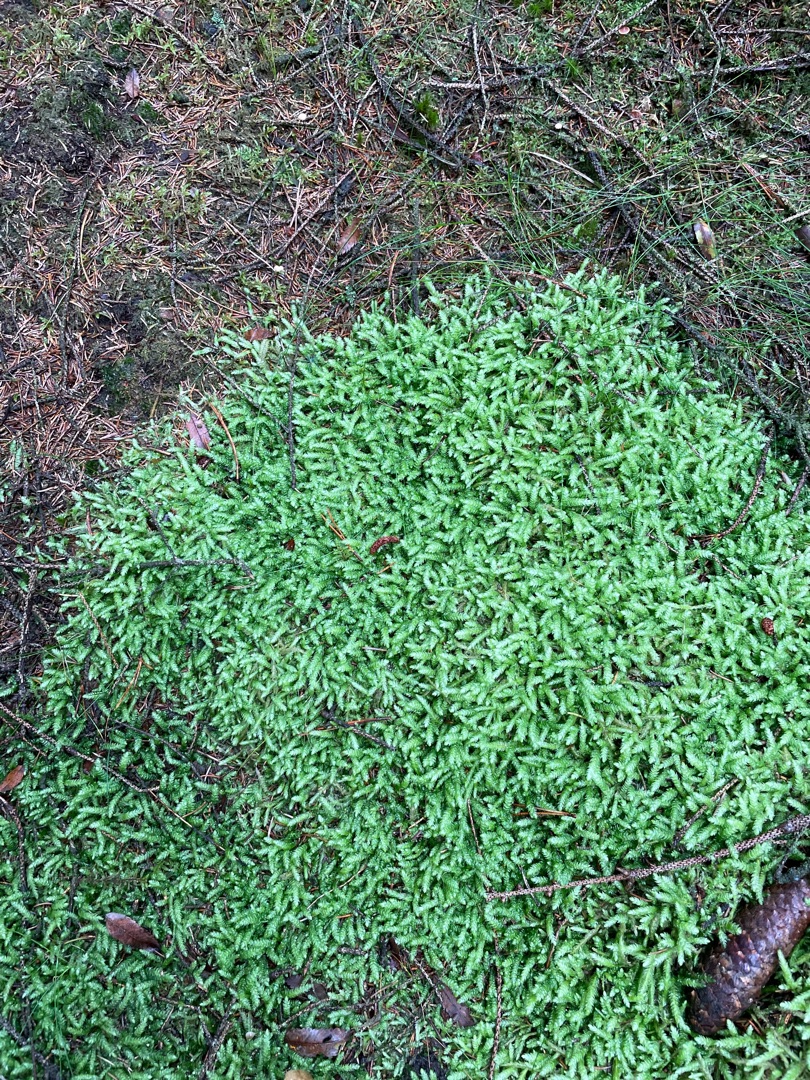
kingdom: Plantae
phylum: Bryophyta
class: Bryopsida
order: Hypnales
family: Plagiotheciaceae
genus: Plagiothecium
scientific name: Plagiothecium undulatum
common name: Bølget tæppemos
